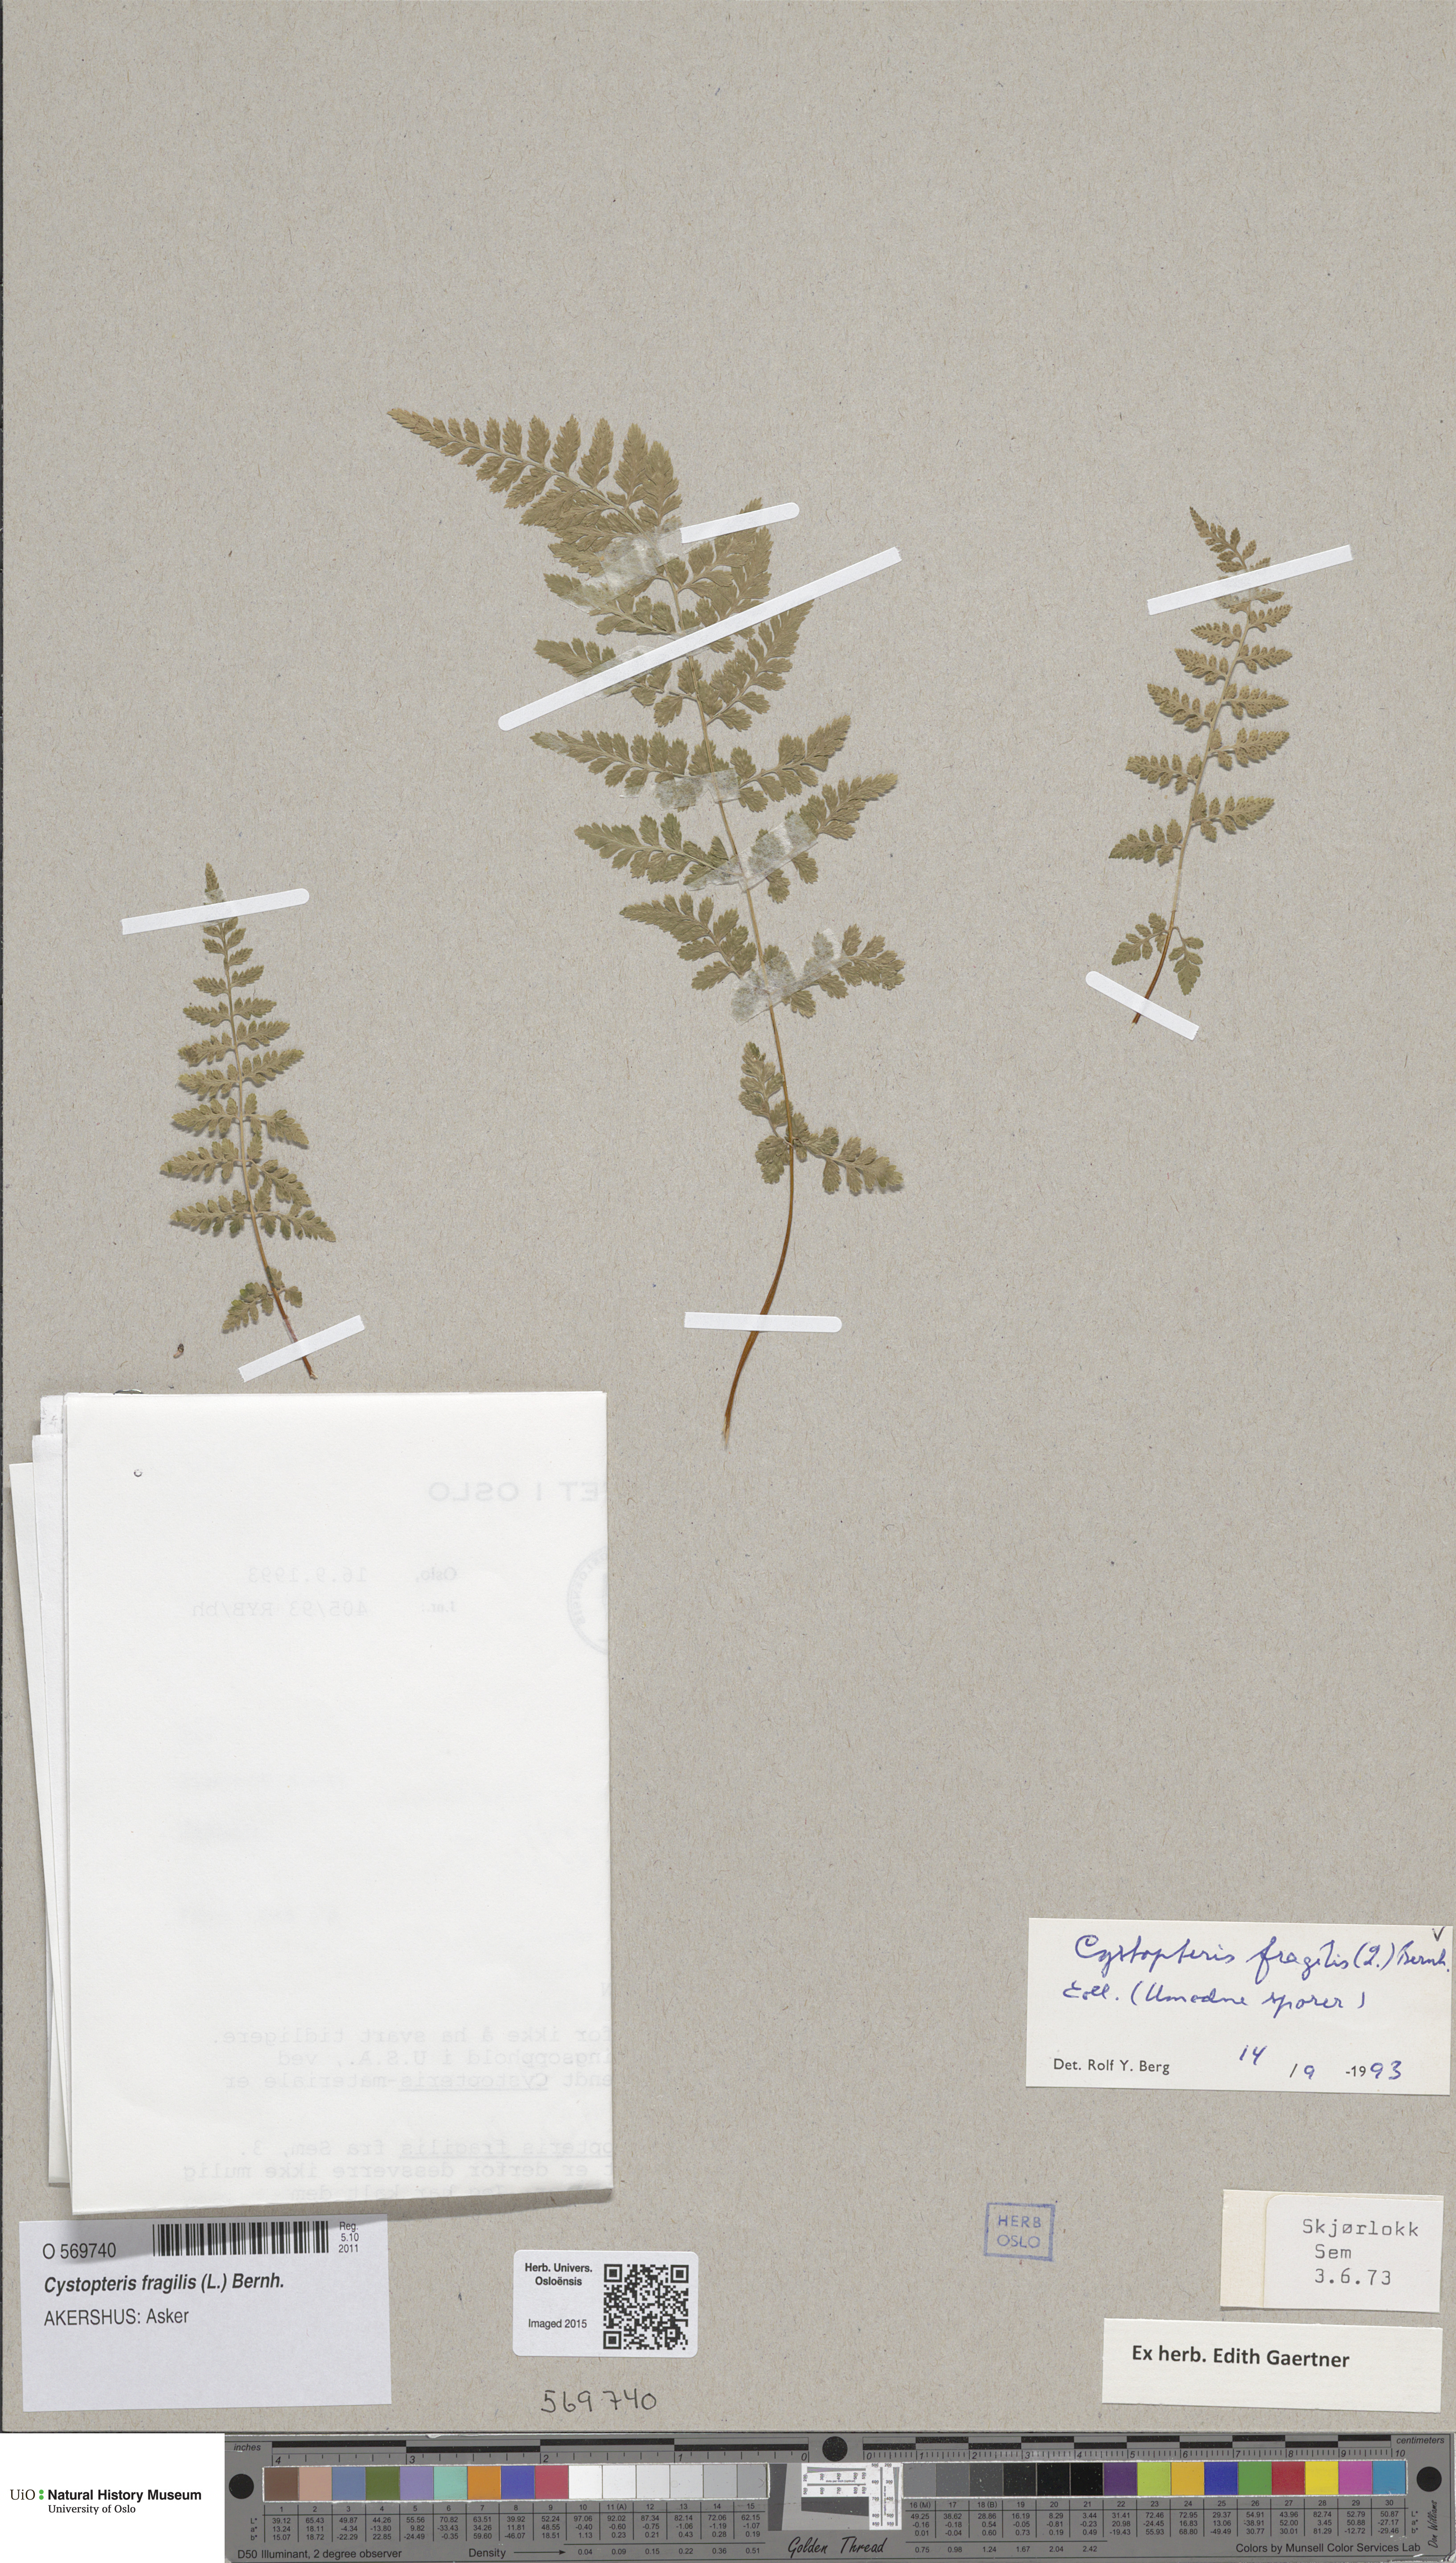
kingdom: Plantae
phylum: Tracheophyta
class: Polypodiopsida
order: Polypodiales
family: Cystopteridaceae
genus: Cystopteris
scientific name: Cystopteris fragilis
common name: Brittle bladder fern
